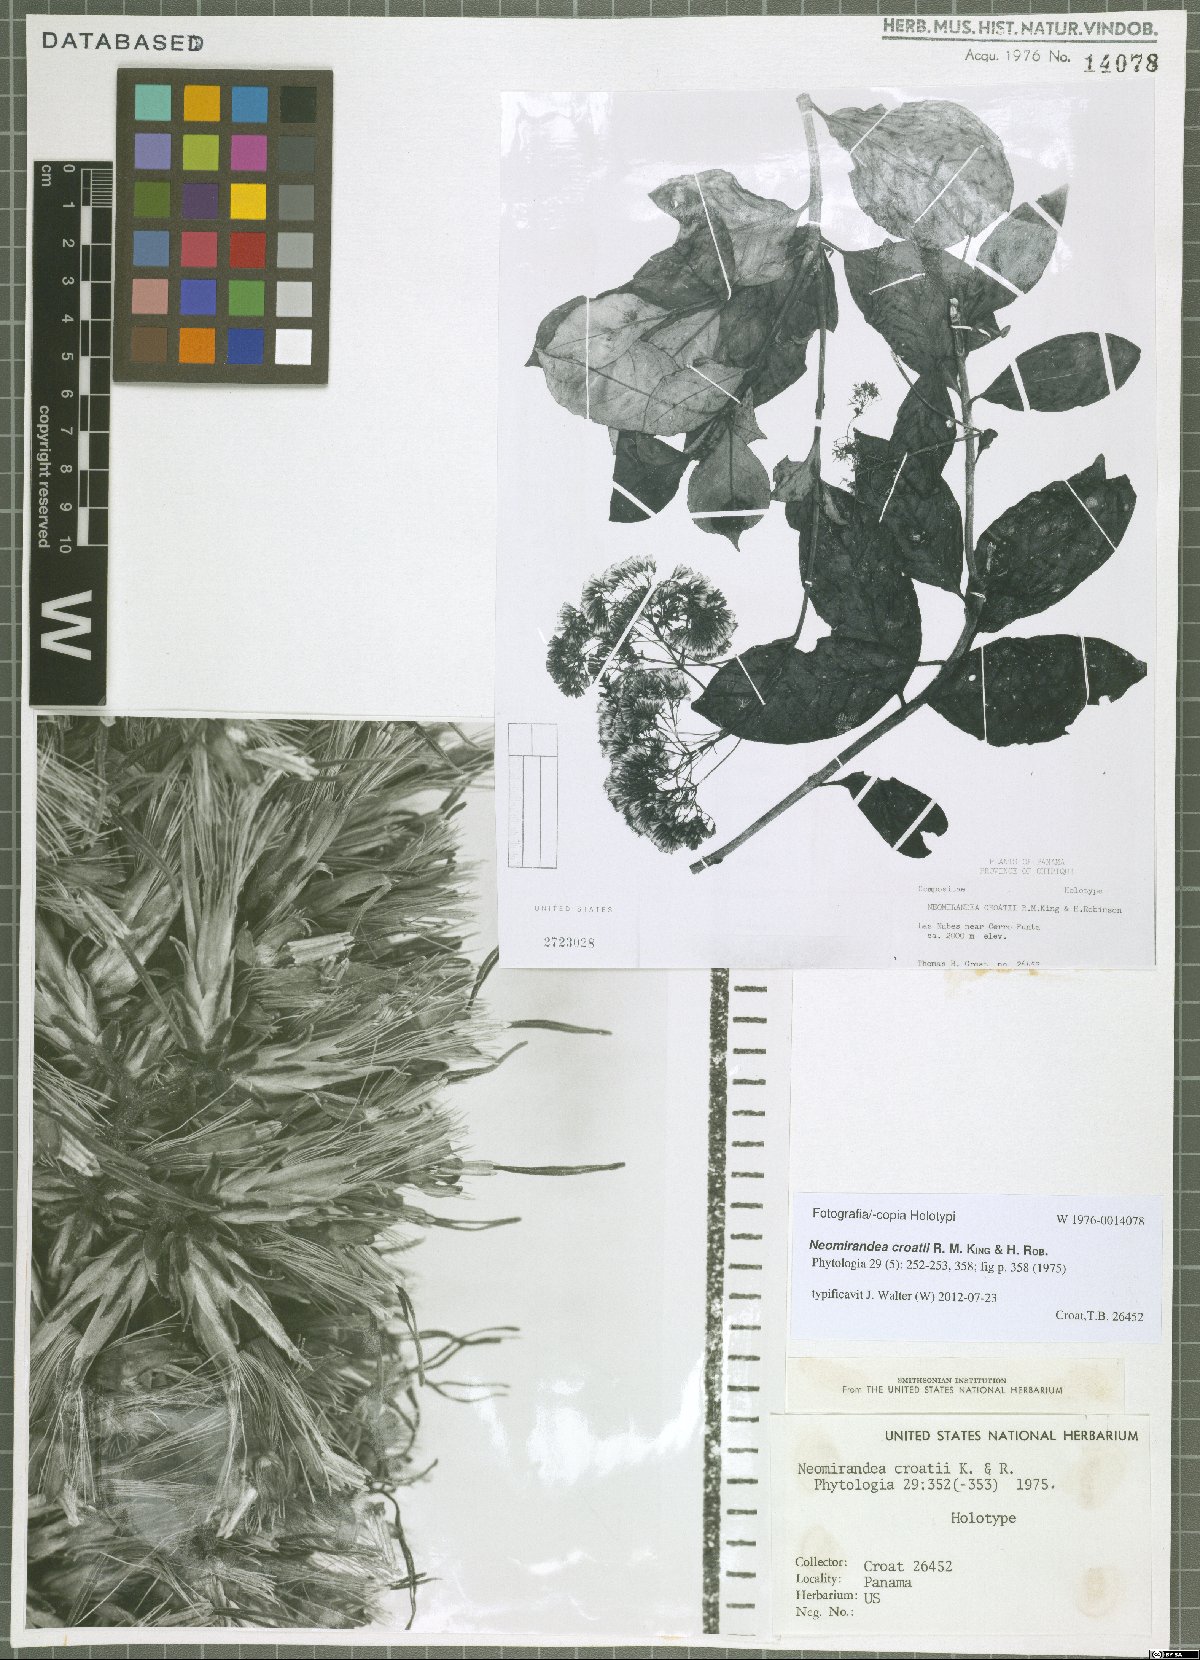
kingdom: Plantae
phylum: Tracheophyta
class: Magnoliopsida
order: Asterales
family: Asteraceae
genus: Neomirandea
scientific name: Neomirandea croatii
